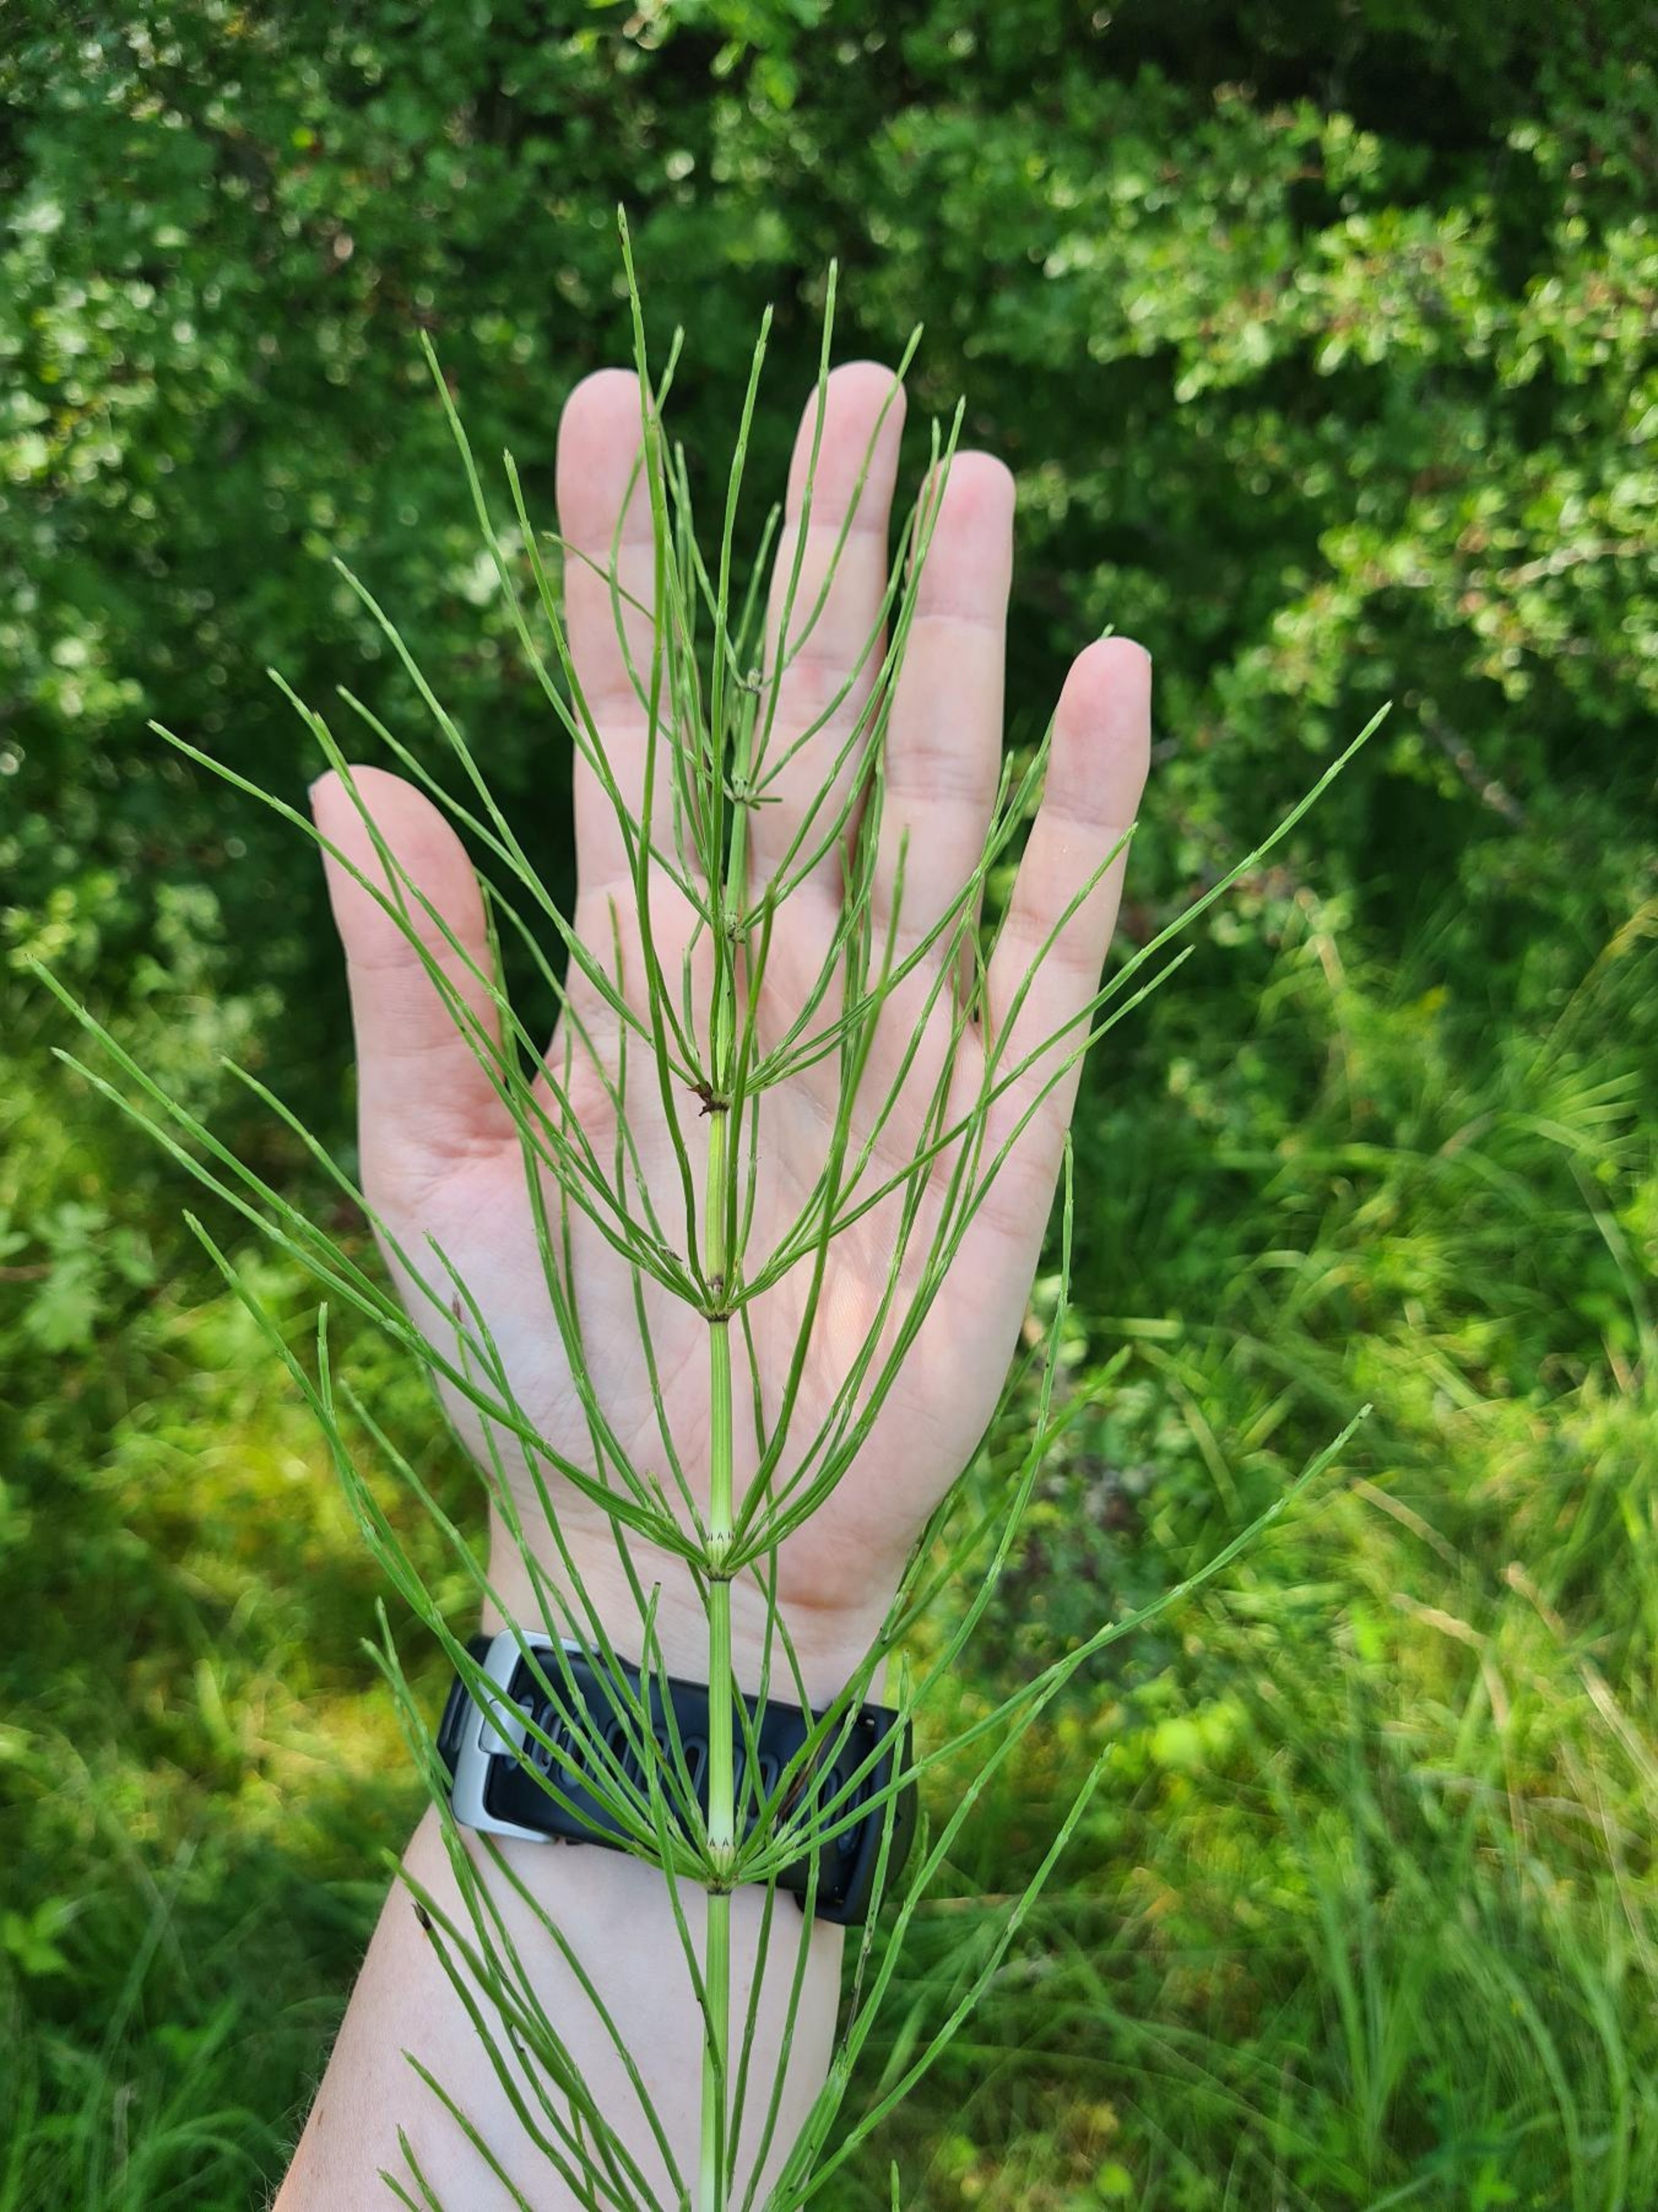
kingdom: Plantae
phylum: Tracheophyta
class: Polypodiopsida
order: Equisetales
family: Equisetaceae
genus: Equisetum
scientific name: Equisetum arvense
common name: Ager-padderok
